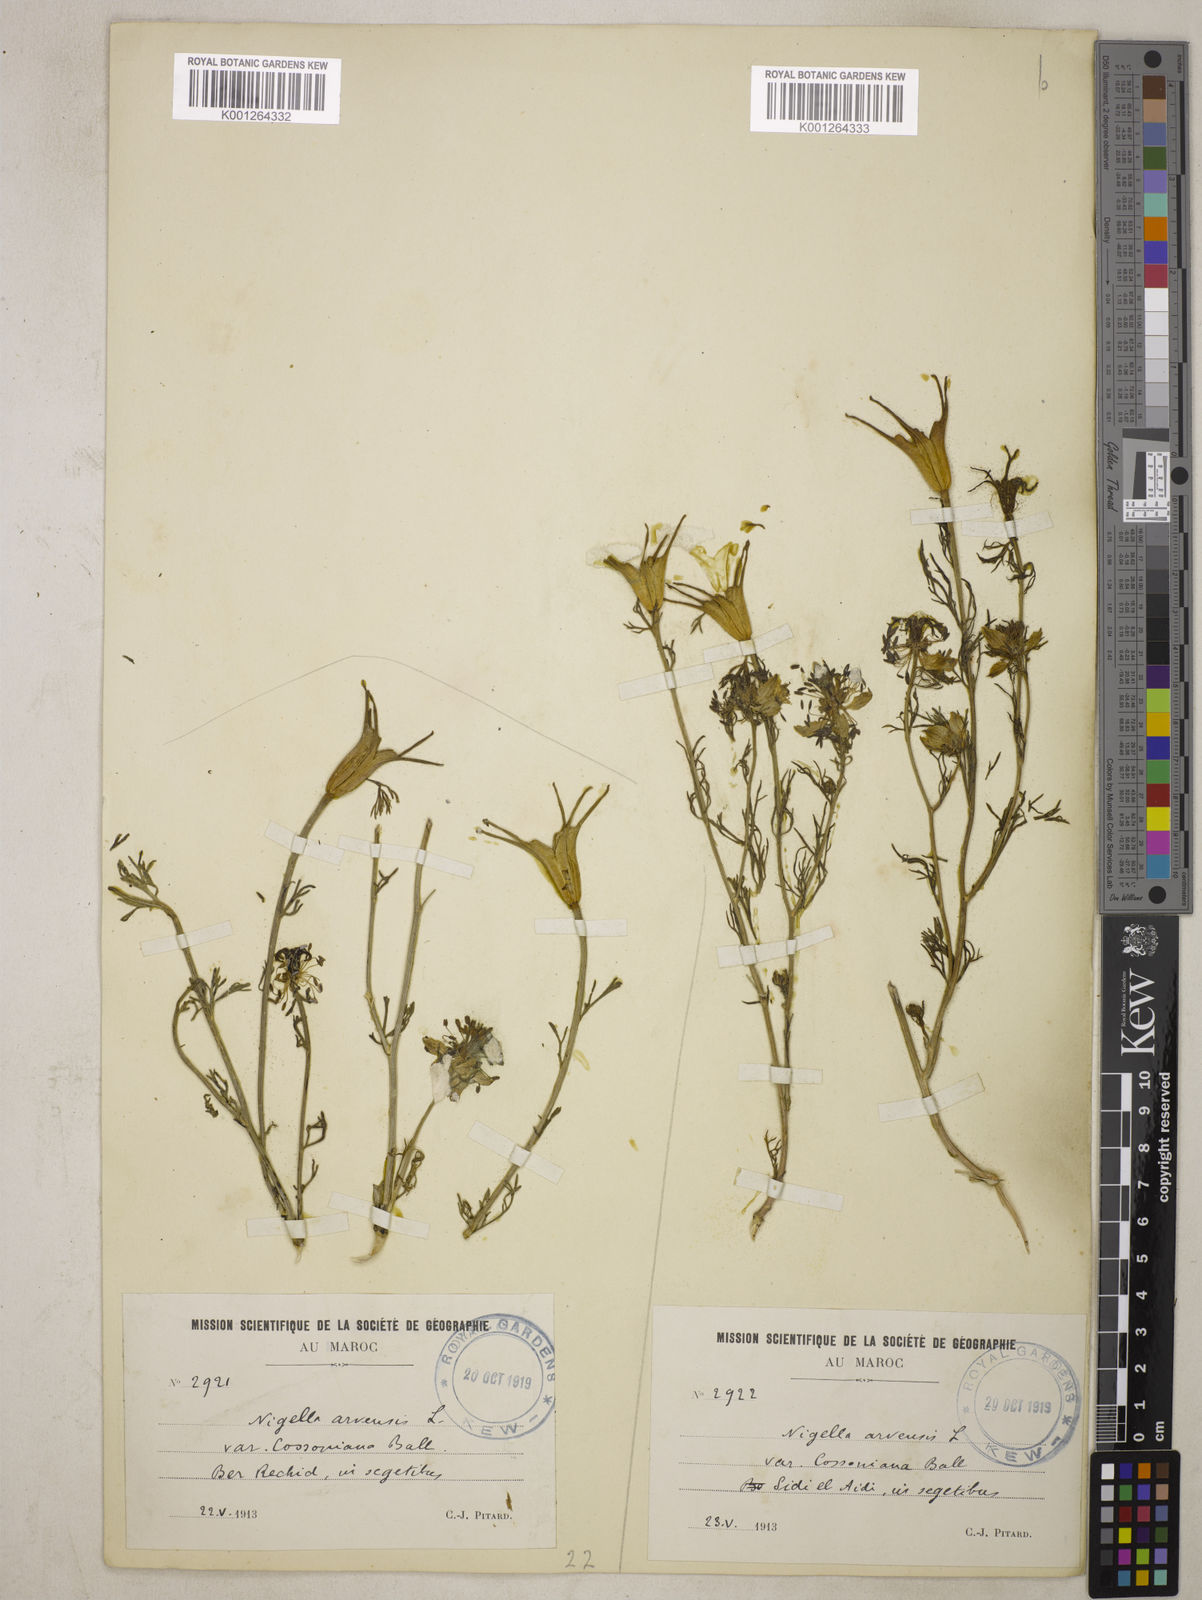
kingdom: Plantae
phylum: Tracheophyta
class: Magnoliopsida
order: Ranunculales
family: Ranunculaceae
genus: Nigella
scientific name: Nigella arvensis
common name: Wild fennel-flower
